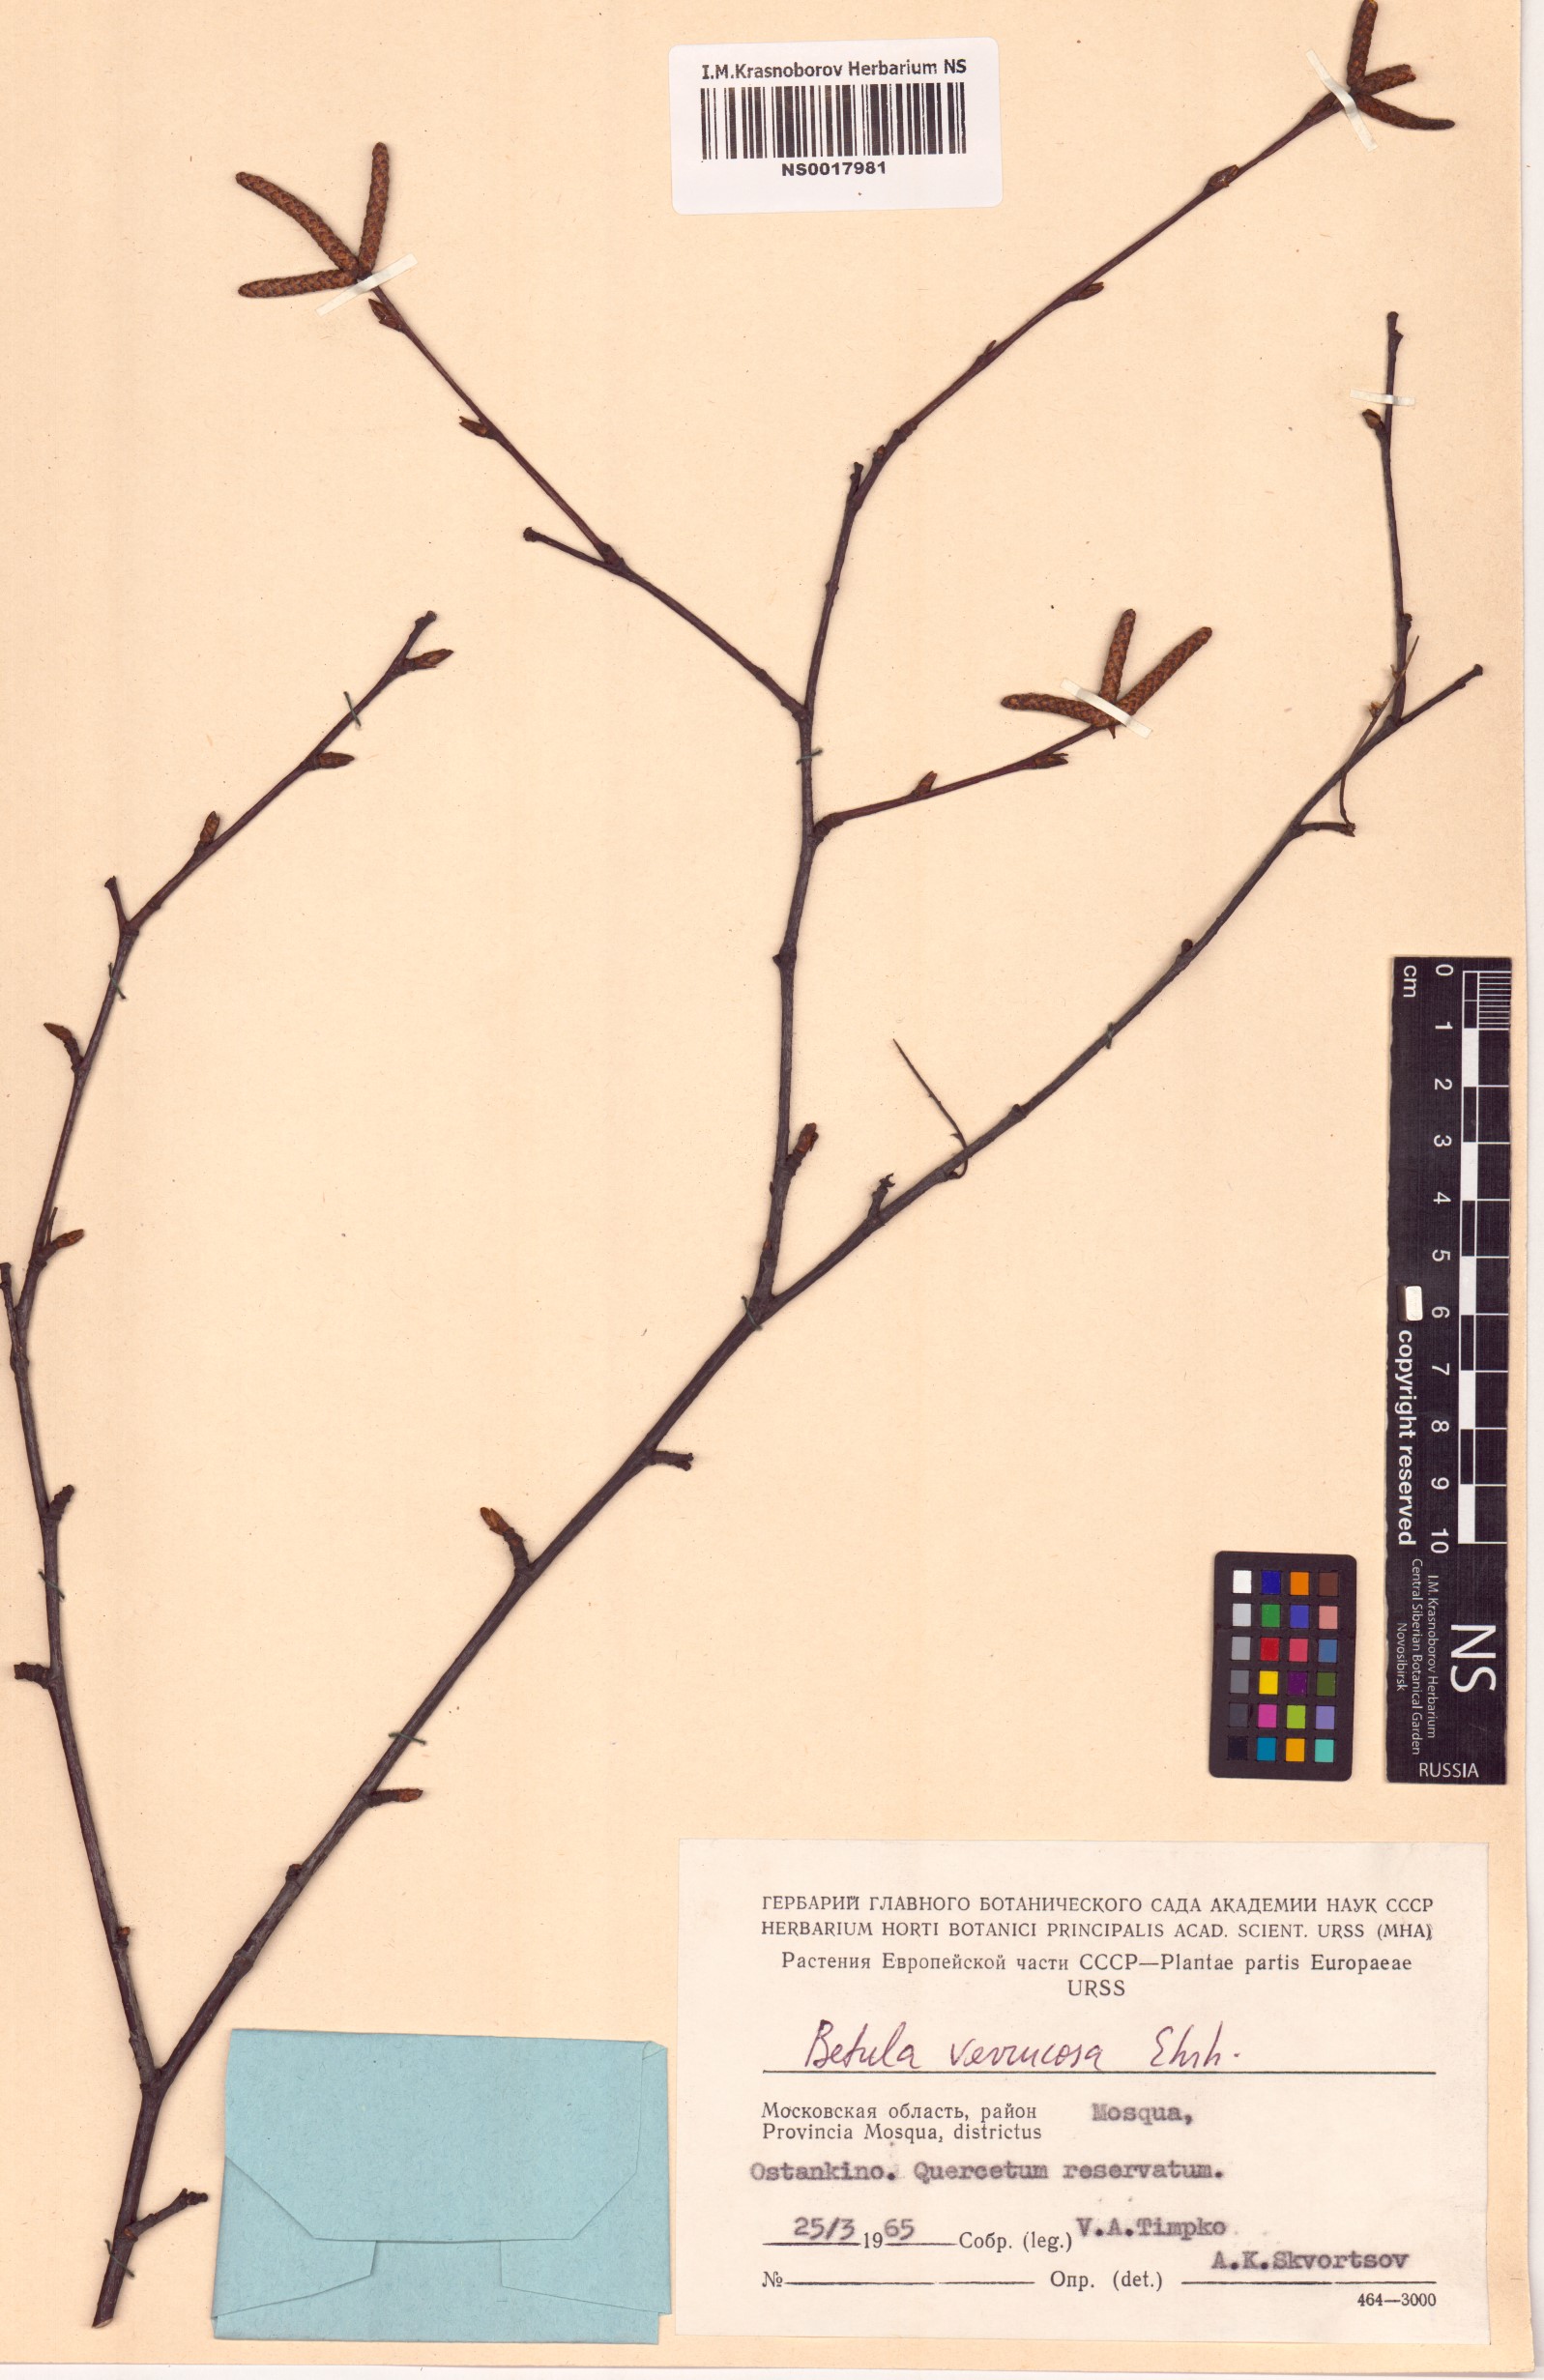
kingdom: Plantae
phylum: Tracheophyta
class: Magnoliopsida
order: Fagales
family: Betulaceae
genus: Betula
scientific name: Betula pendula
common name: Silver birch
